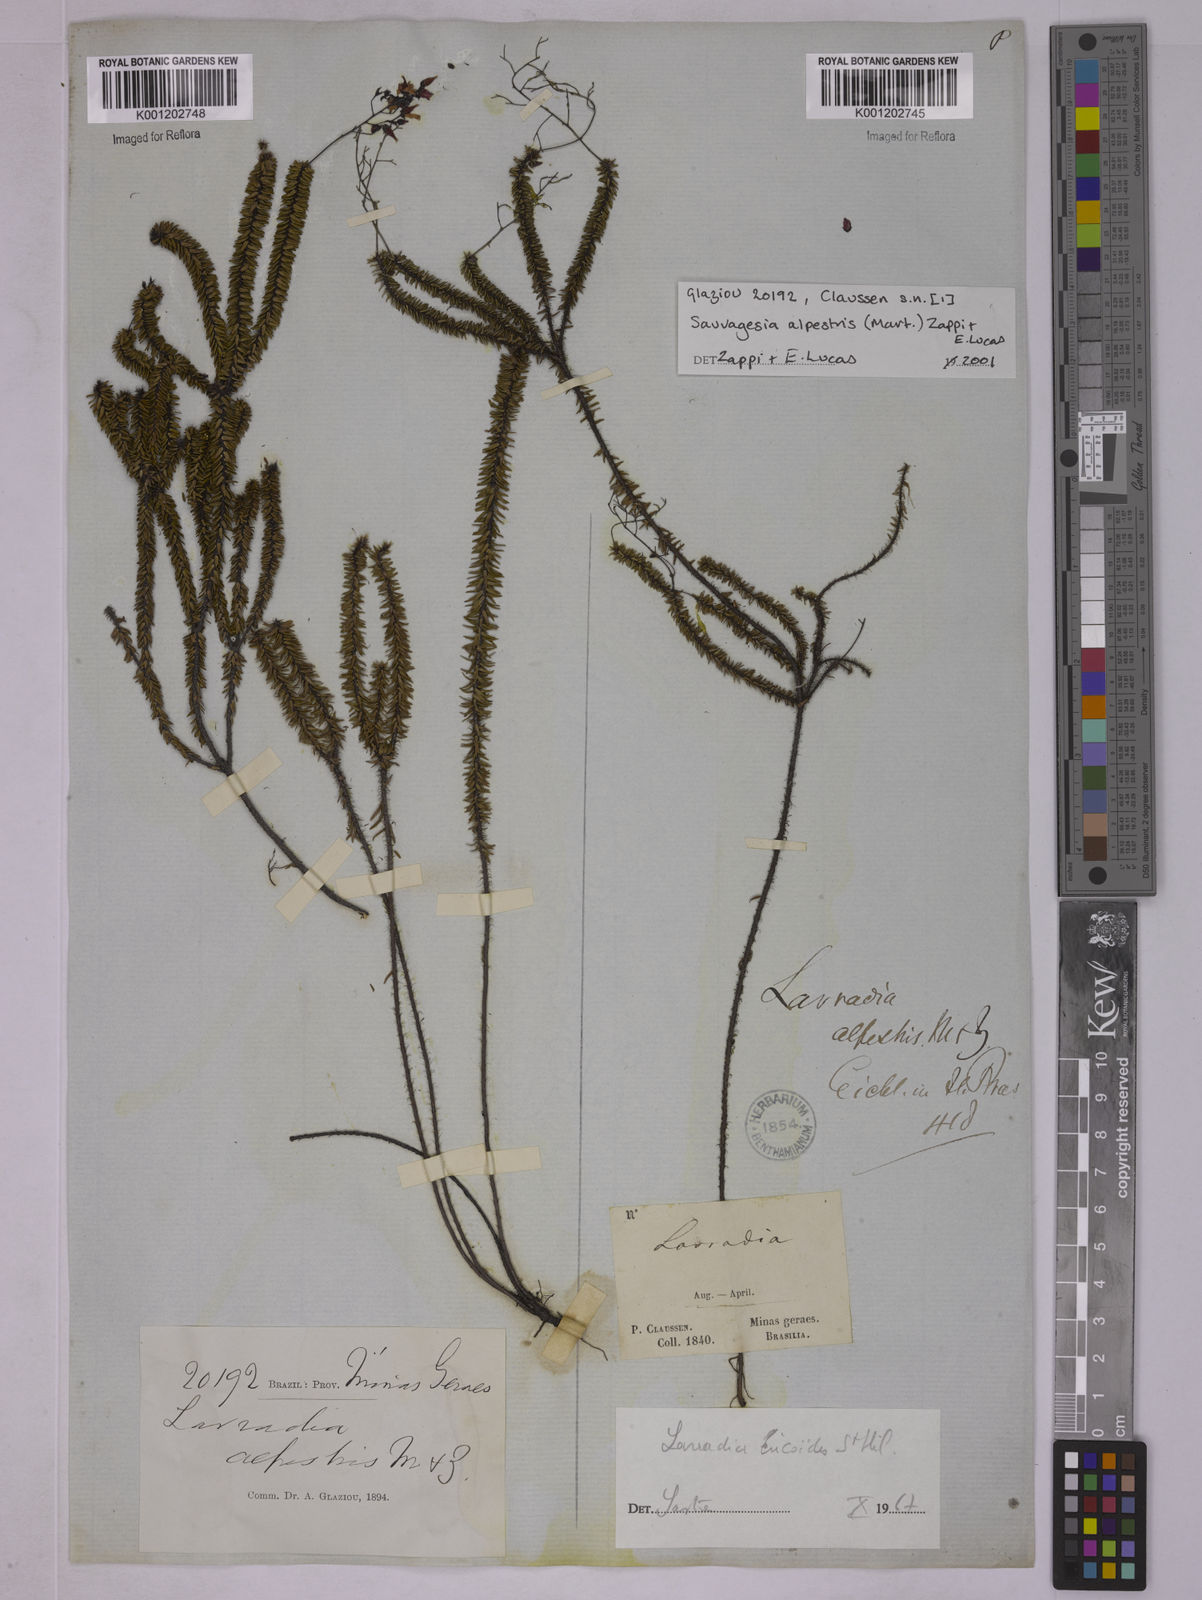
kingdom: Plantae
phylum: Tracheophyta
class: Magnoliopsida
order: Malpighiales
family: Ochnaceae
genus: Sauvagesia
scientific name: Sauvagesia alpestris
